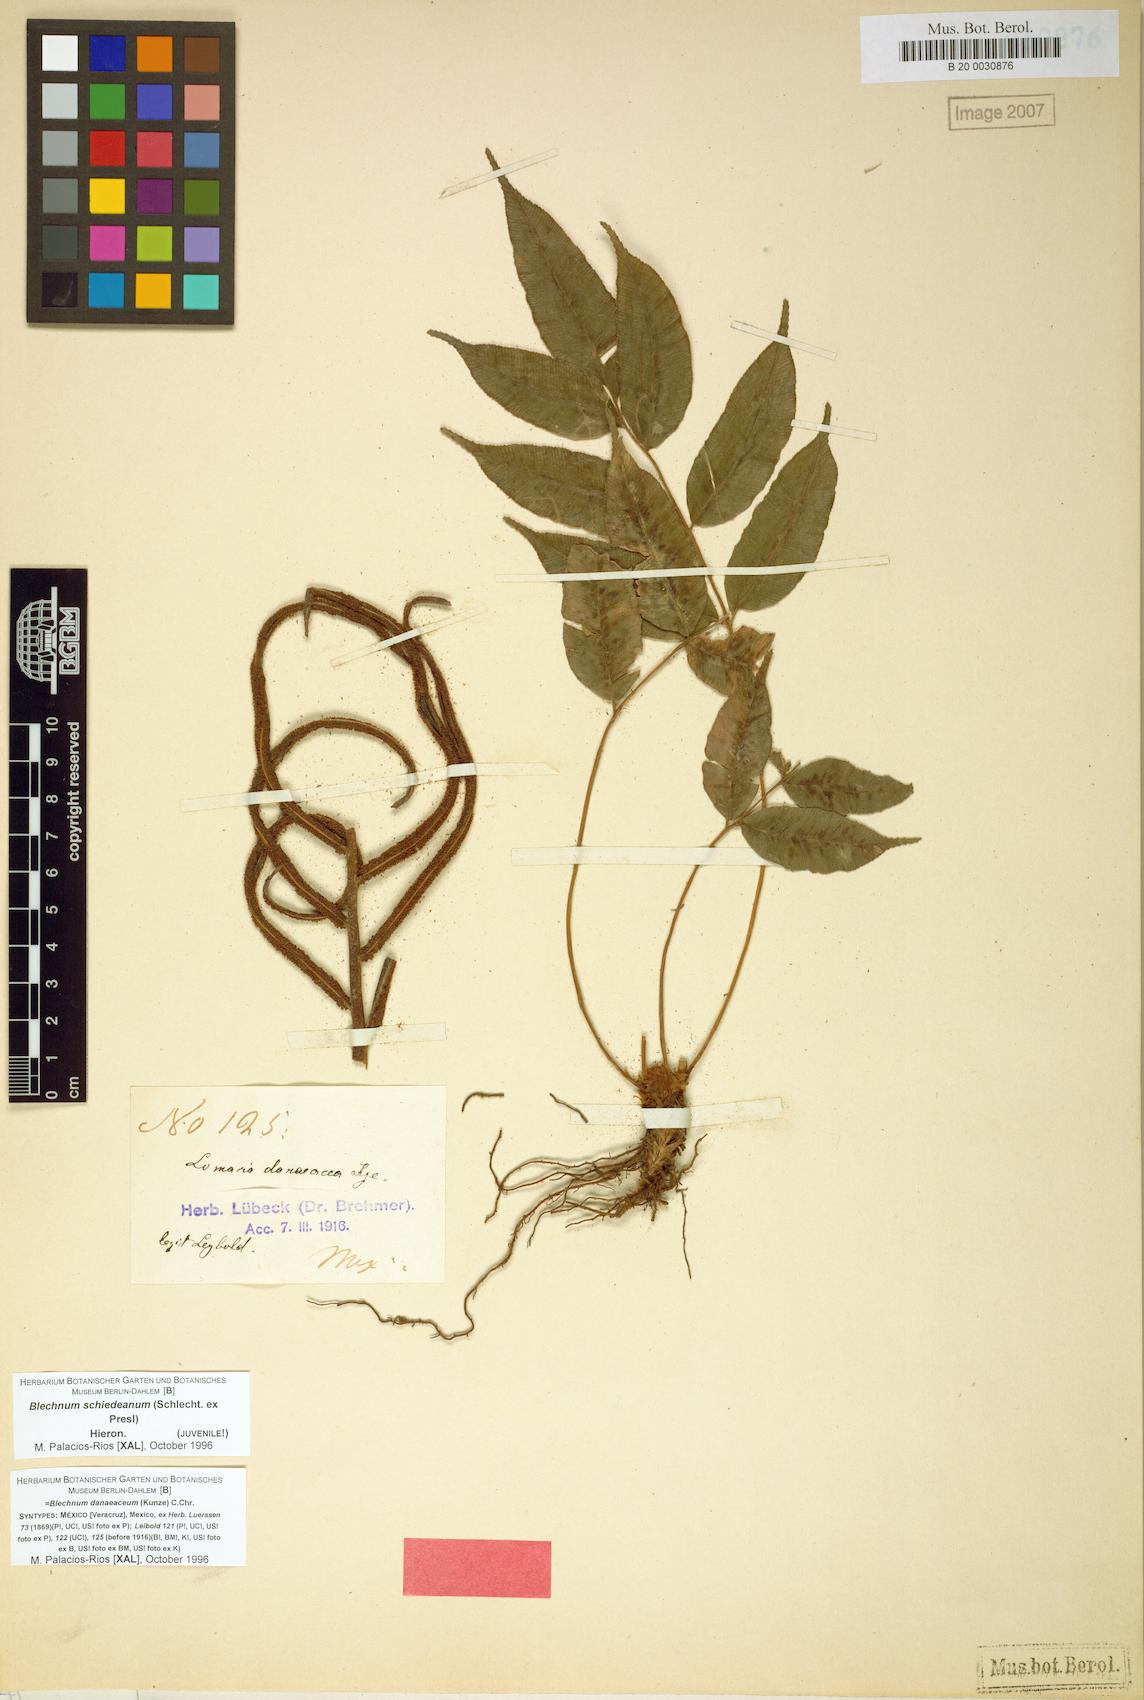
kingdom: Plantae
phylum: Tracheophyta
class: Polypodiopsida
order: Polypodiales
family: Blechnaceae
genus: Parablechnum
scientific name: Parablechnum schiedeanum
